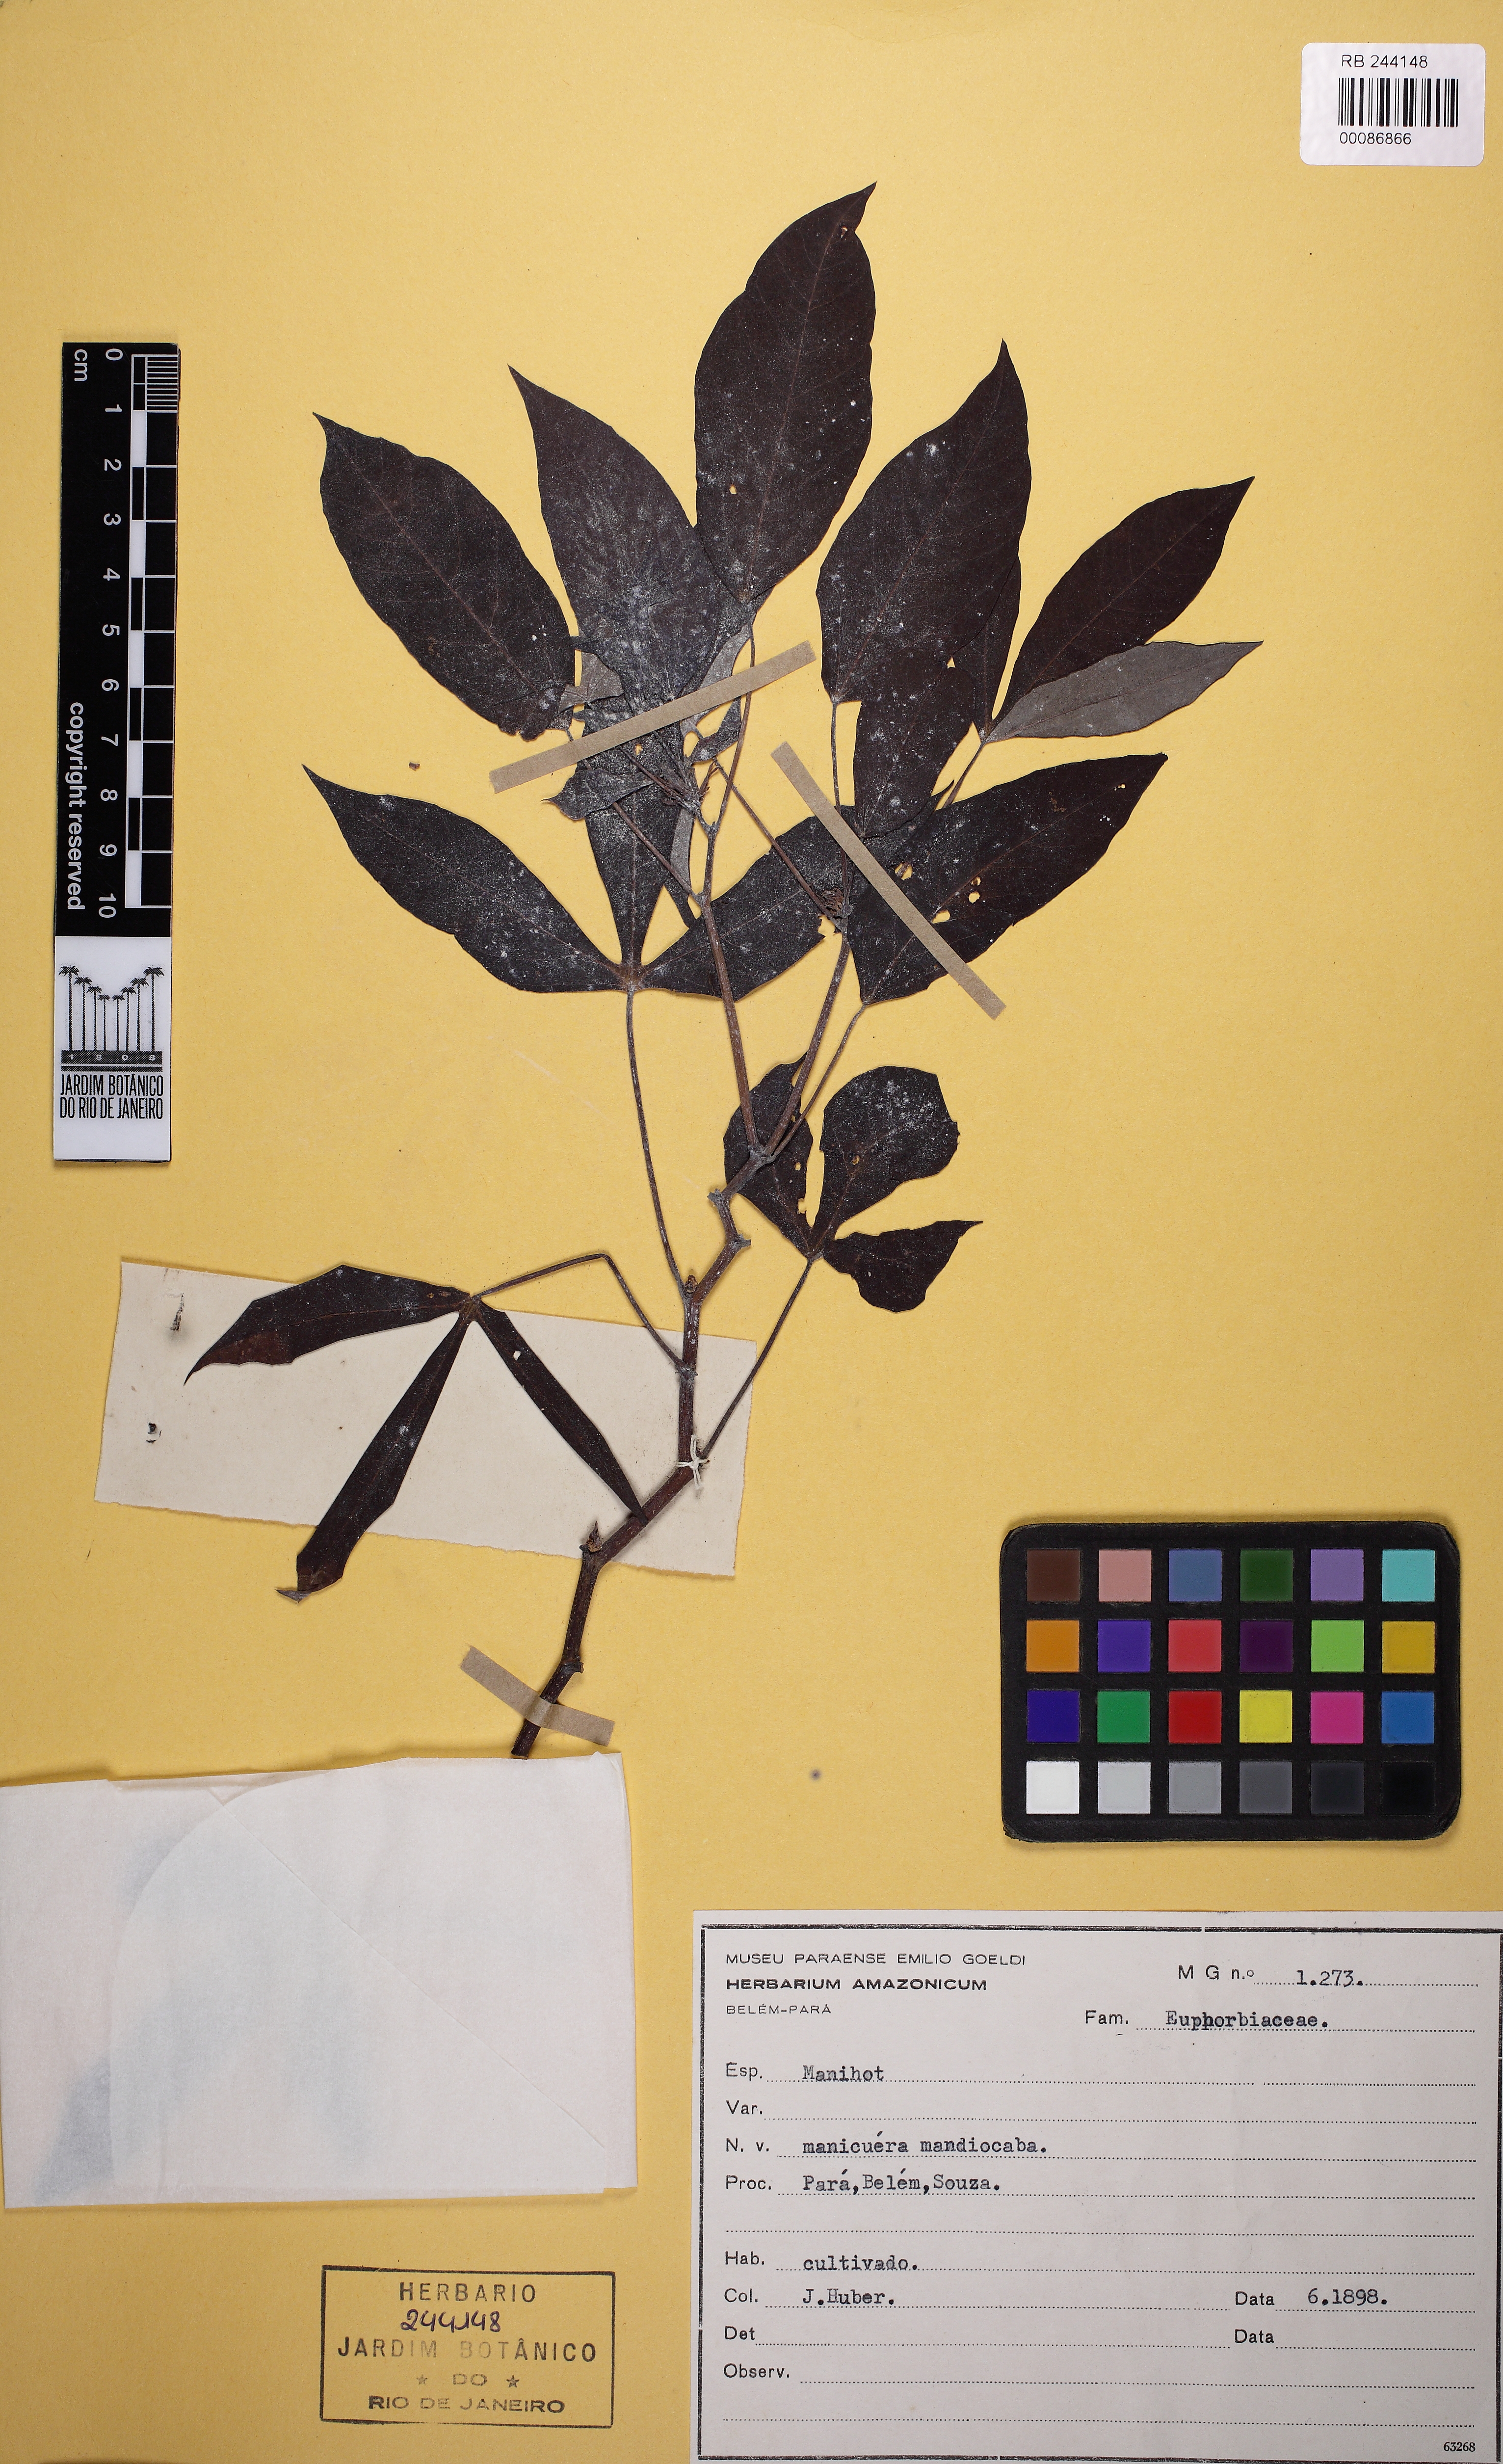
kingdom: Plantae
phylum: Tracheophyta
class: Magnoliopsida
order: Malpighiales
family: Euphorbiaceae
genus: Manihot
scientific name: Manihot esculenta
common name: Cassava
